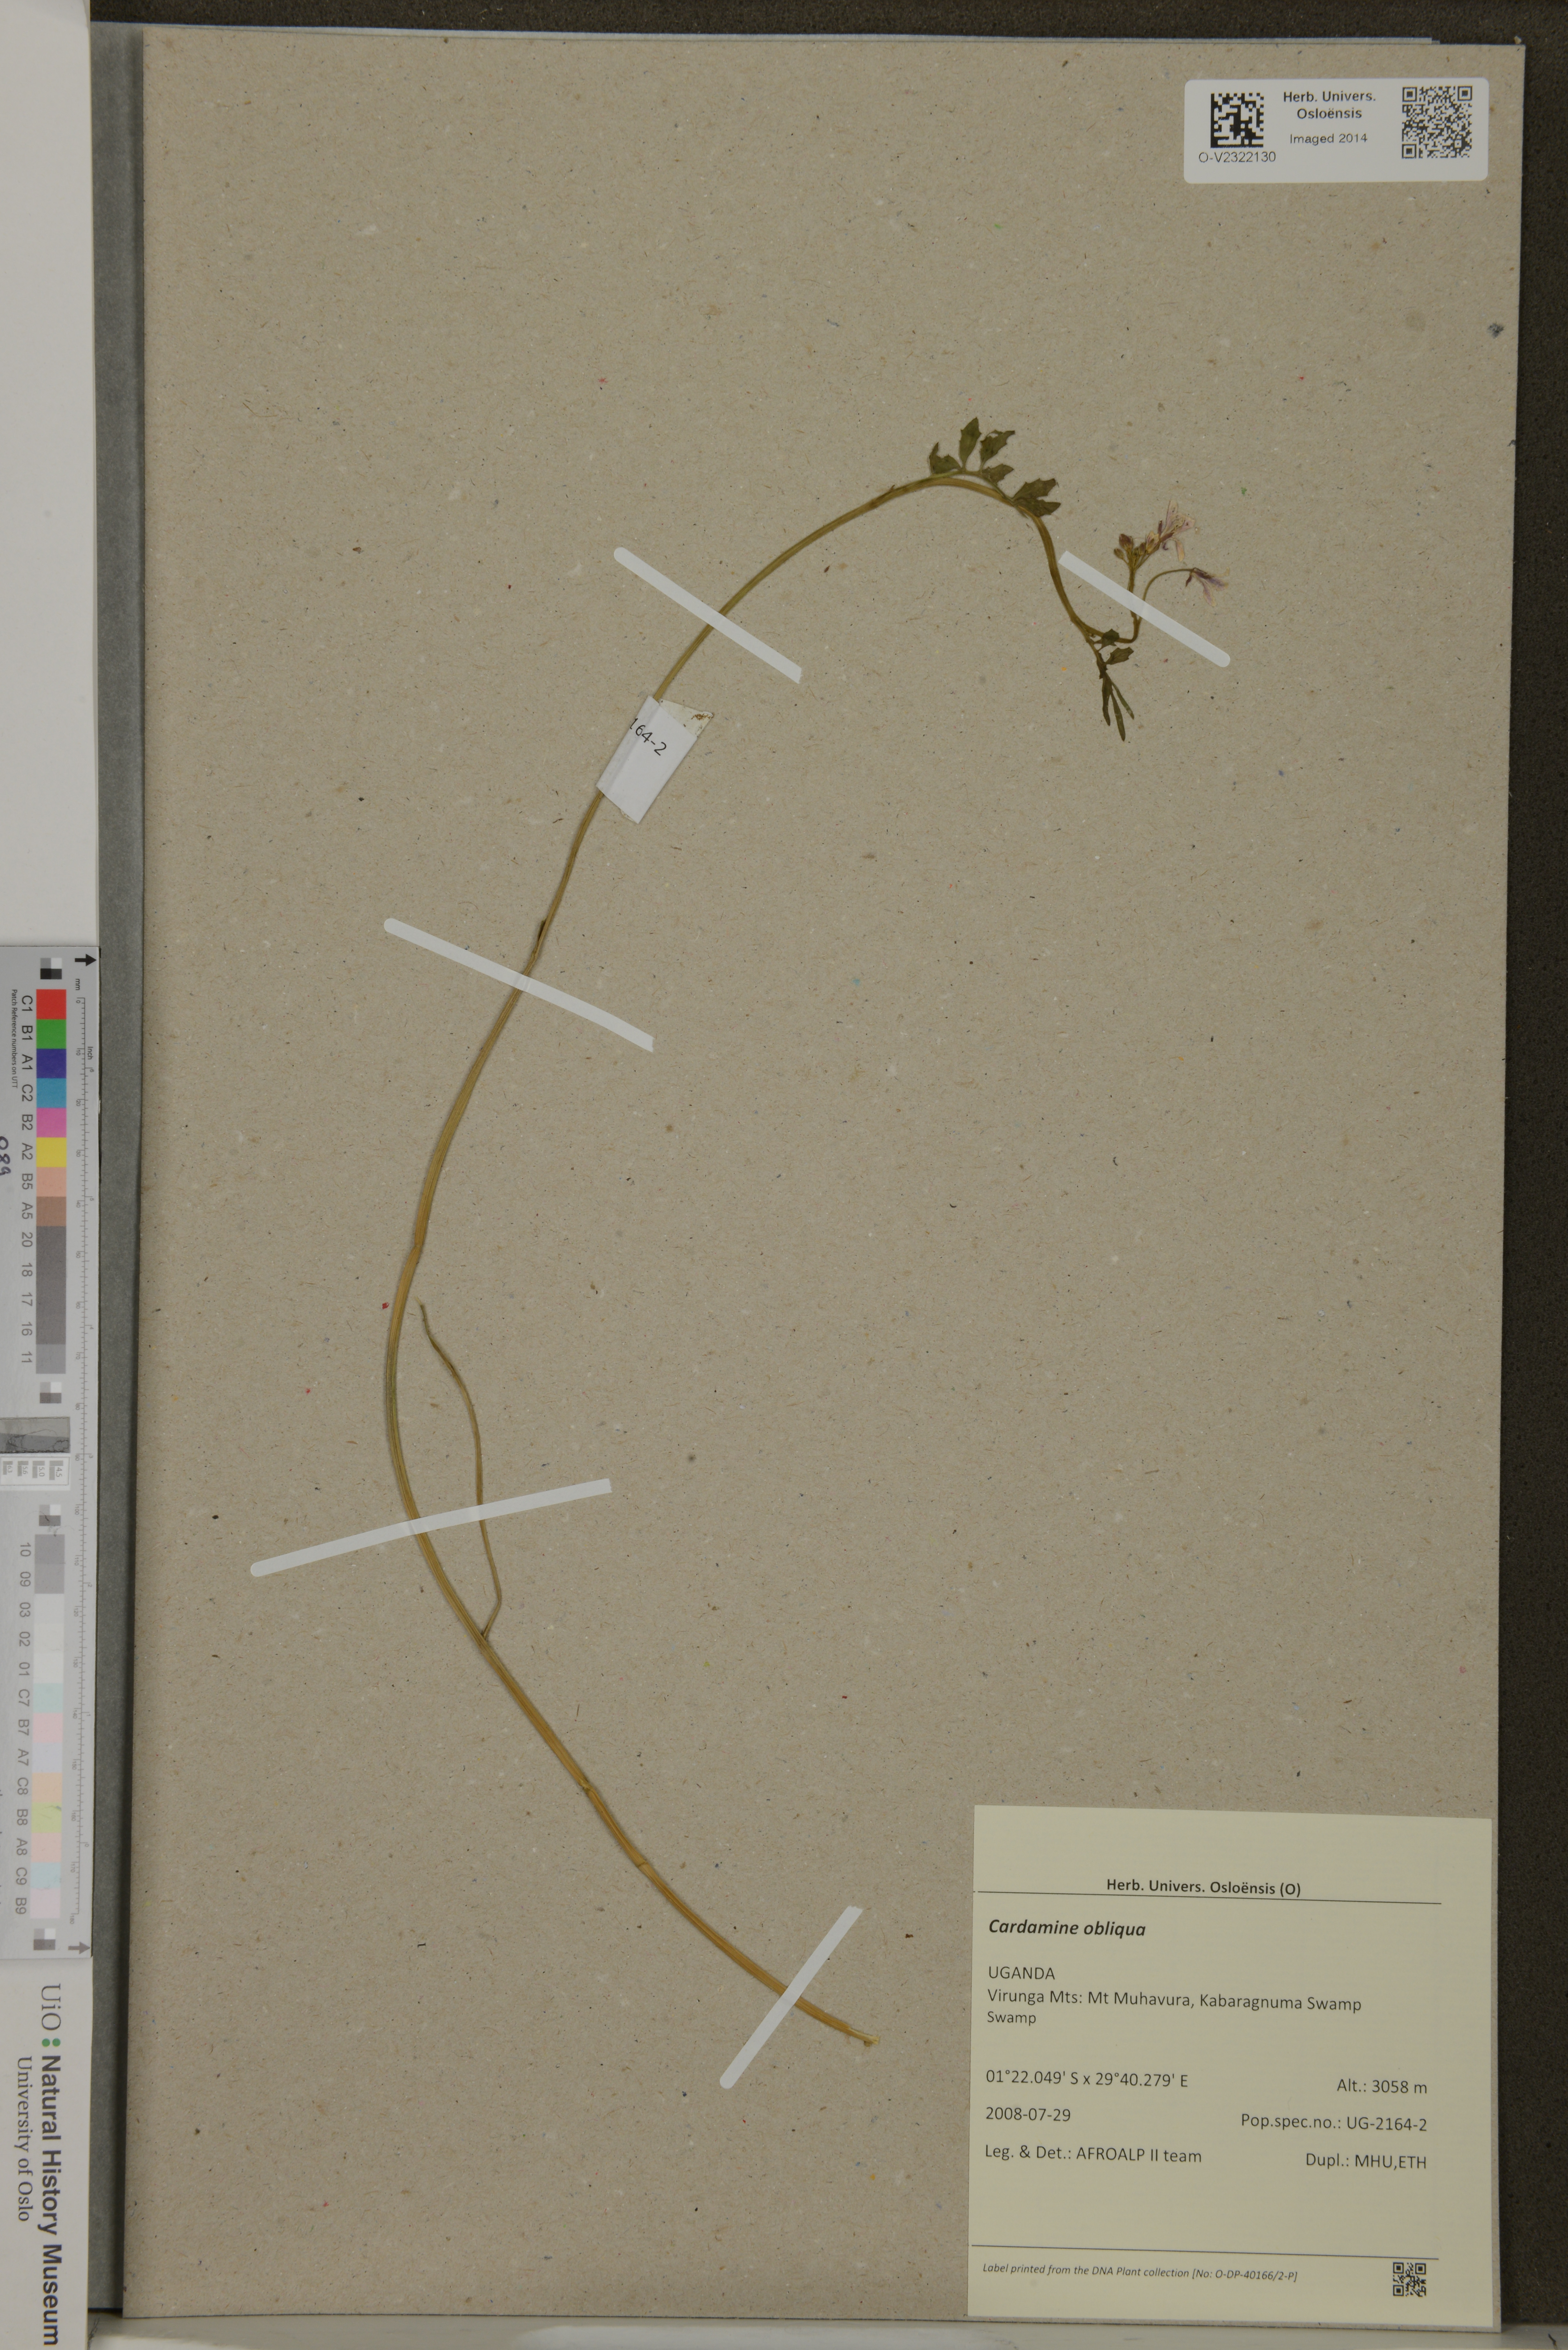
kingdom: Plantae
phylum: Tracheophyta
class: Magnoliopsida
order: Brassicales
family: Brassicaceae
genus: Cardamine
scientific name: Cardamine obliqua
